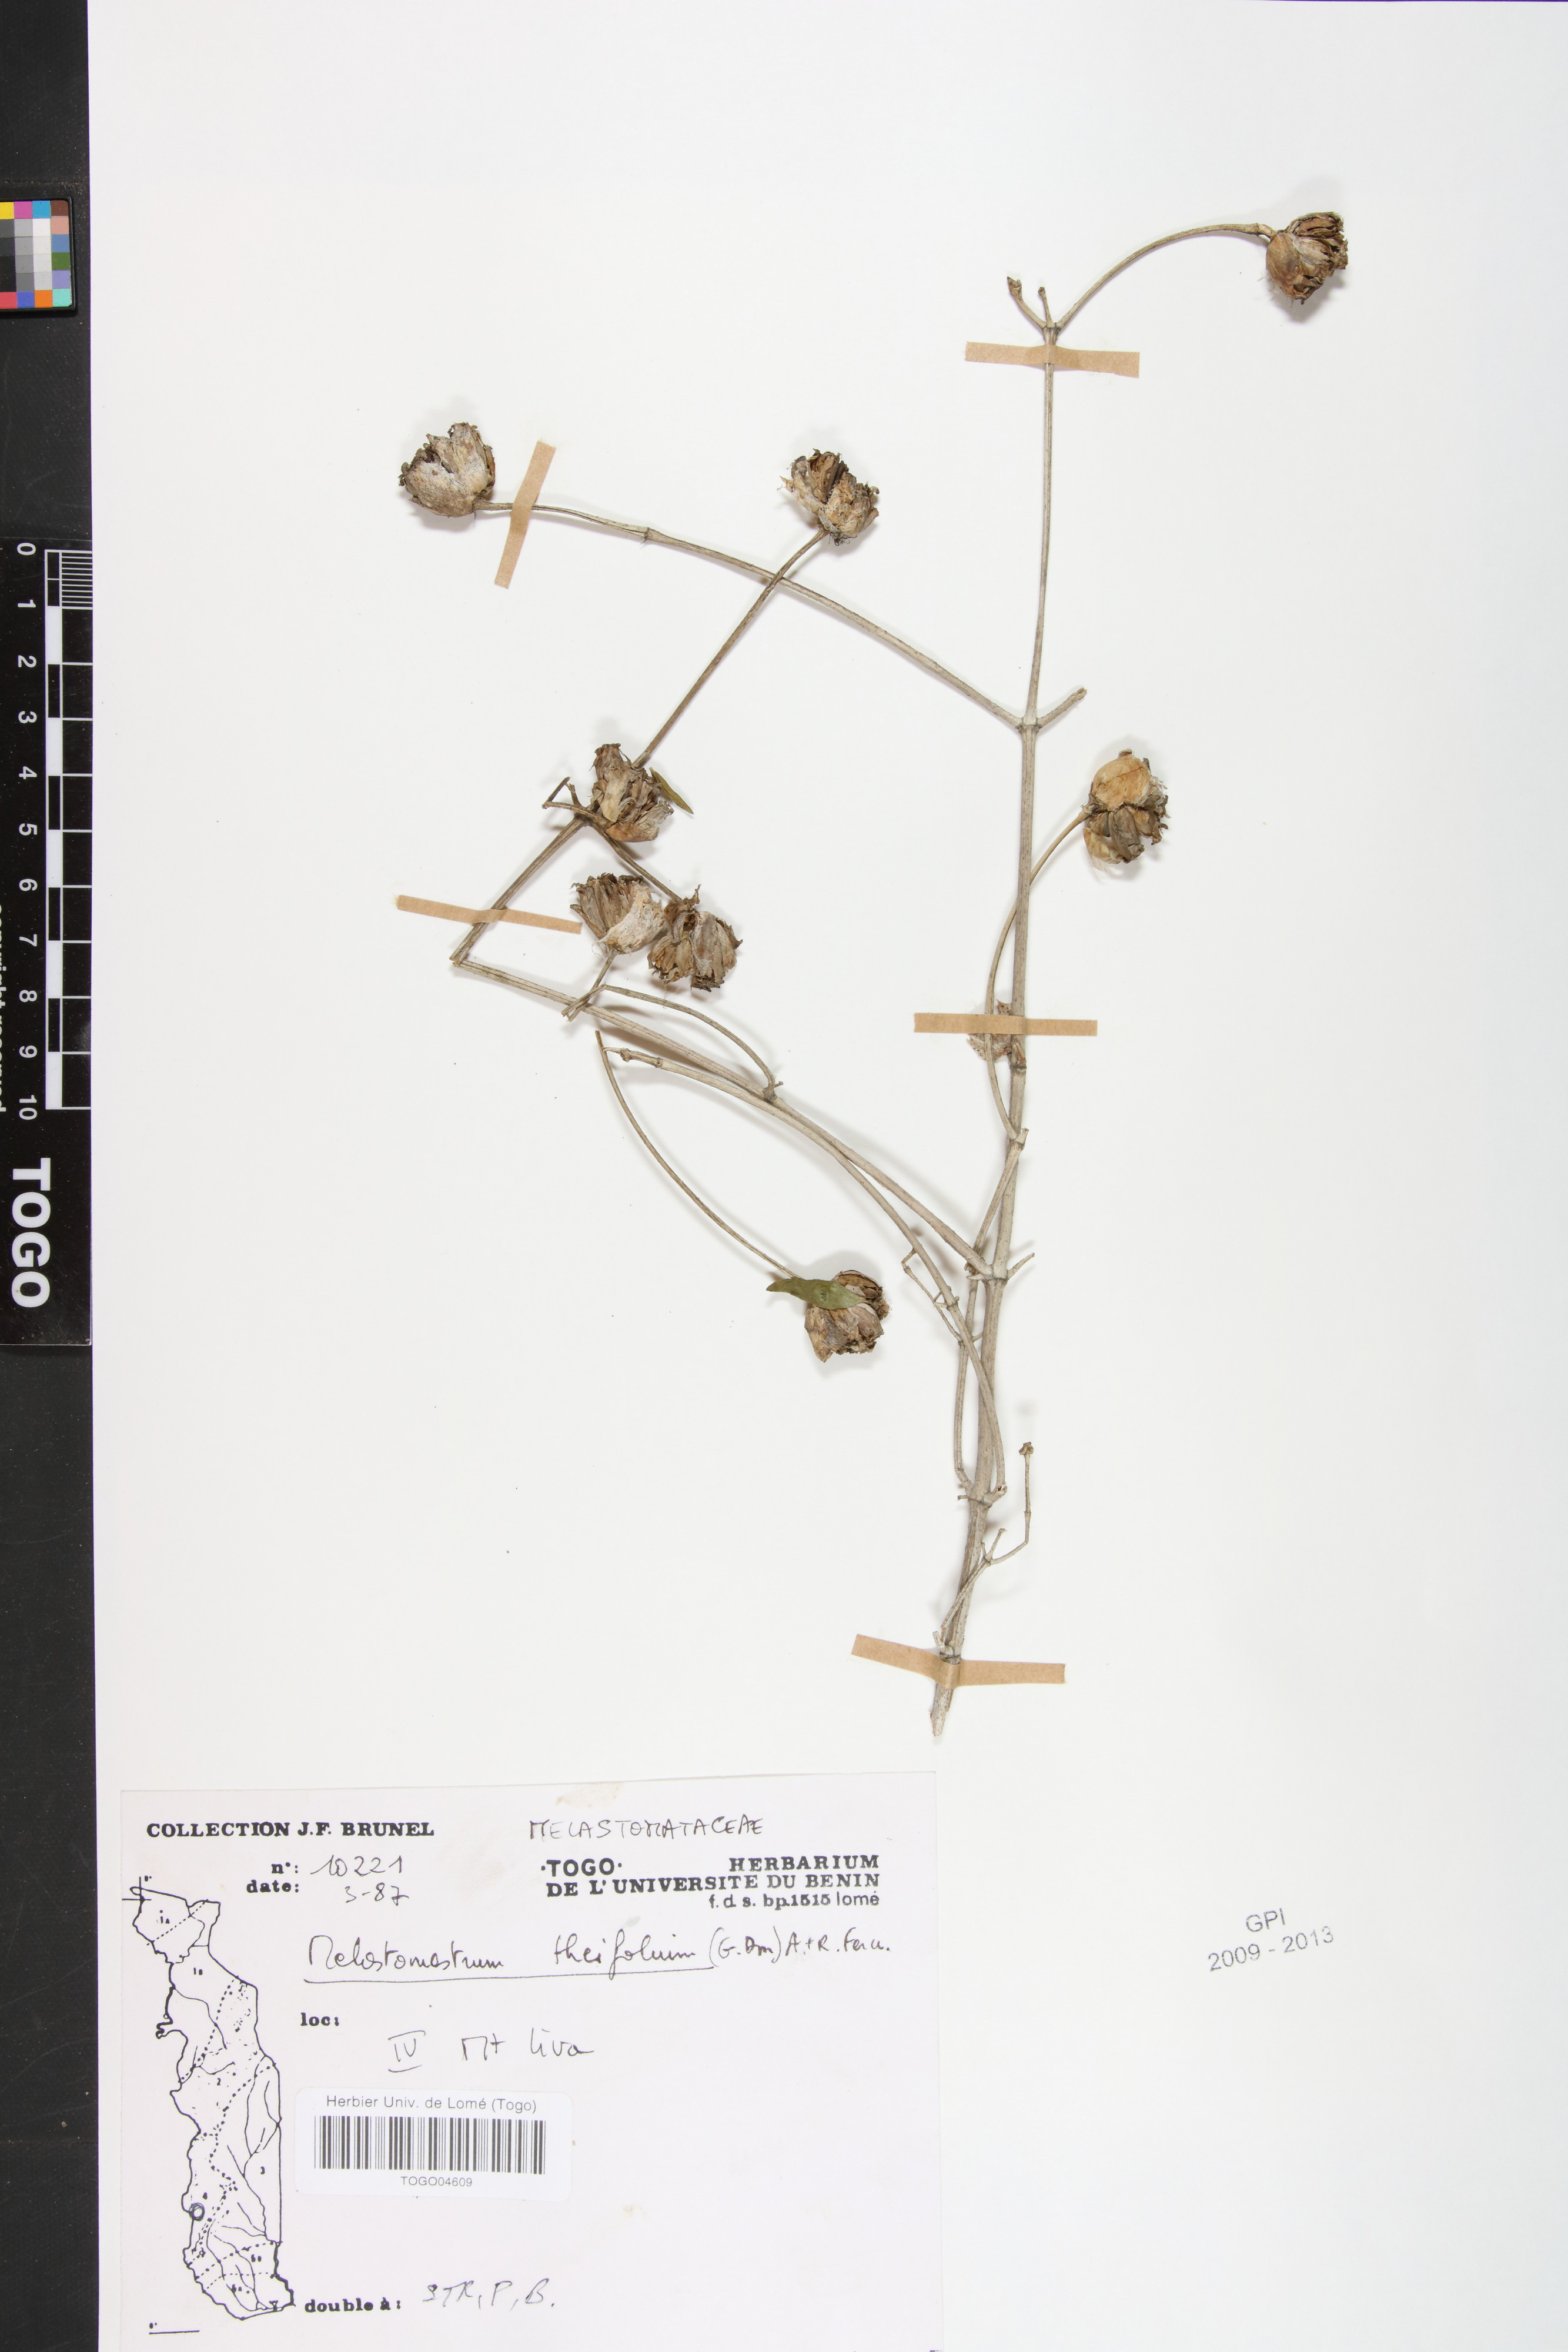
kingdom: Plantae
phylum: Tracheophyta
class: Magnoliopsida
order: Myrtales
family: Melastomataceae
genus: Melastomastrum
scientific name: Melastomastrum theifolium
